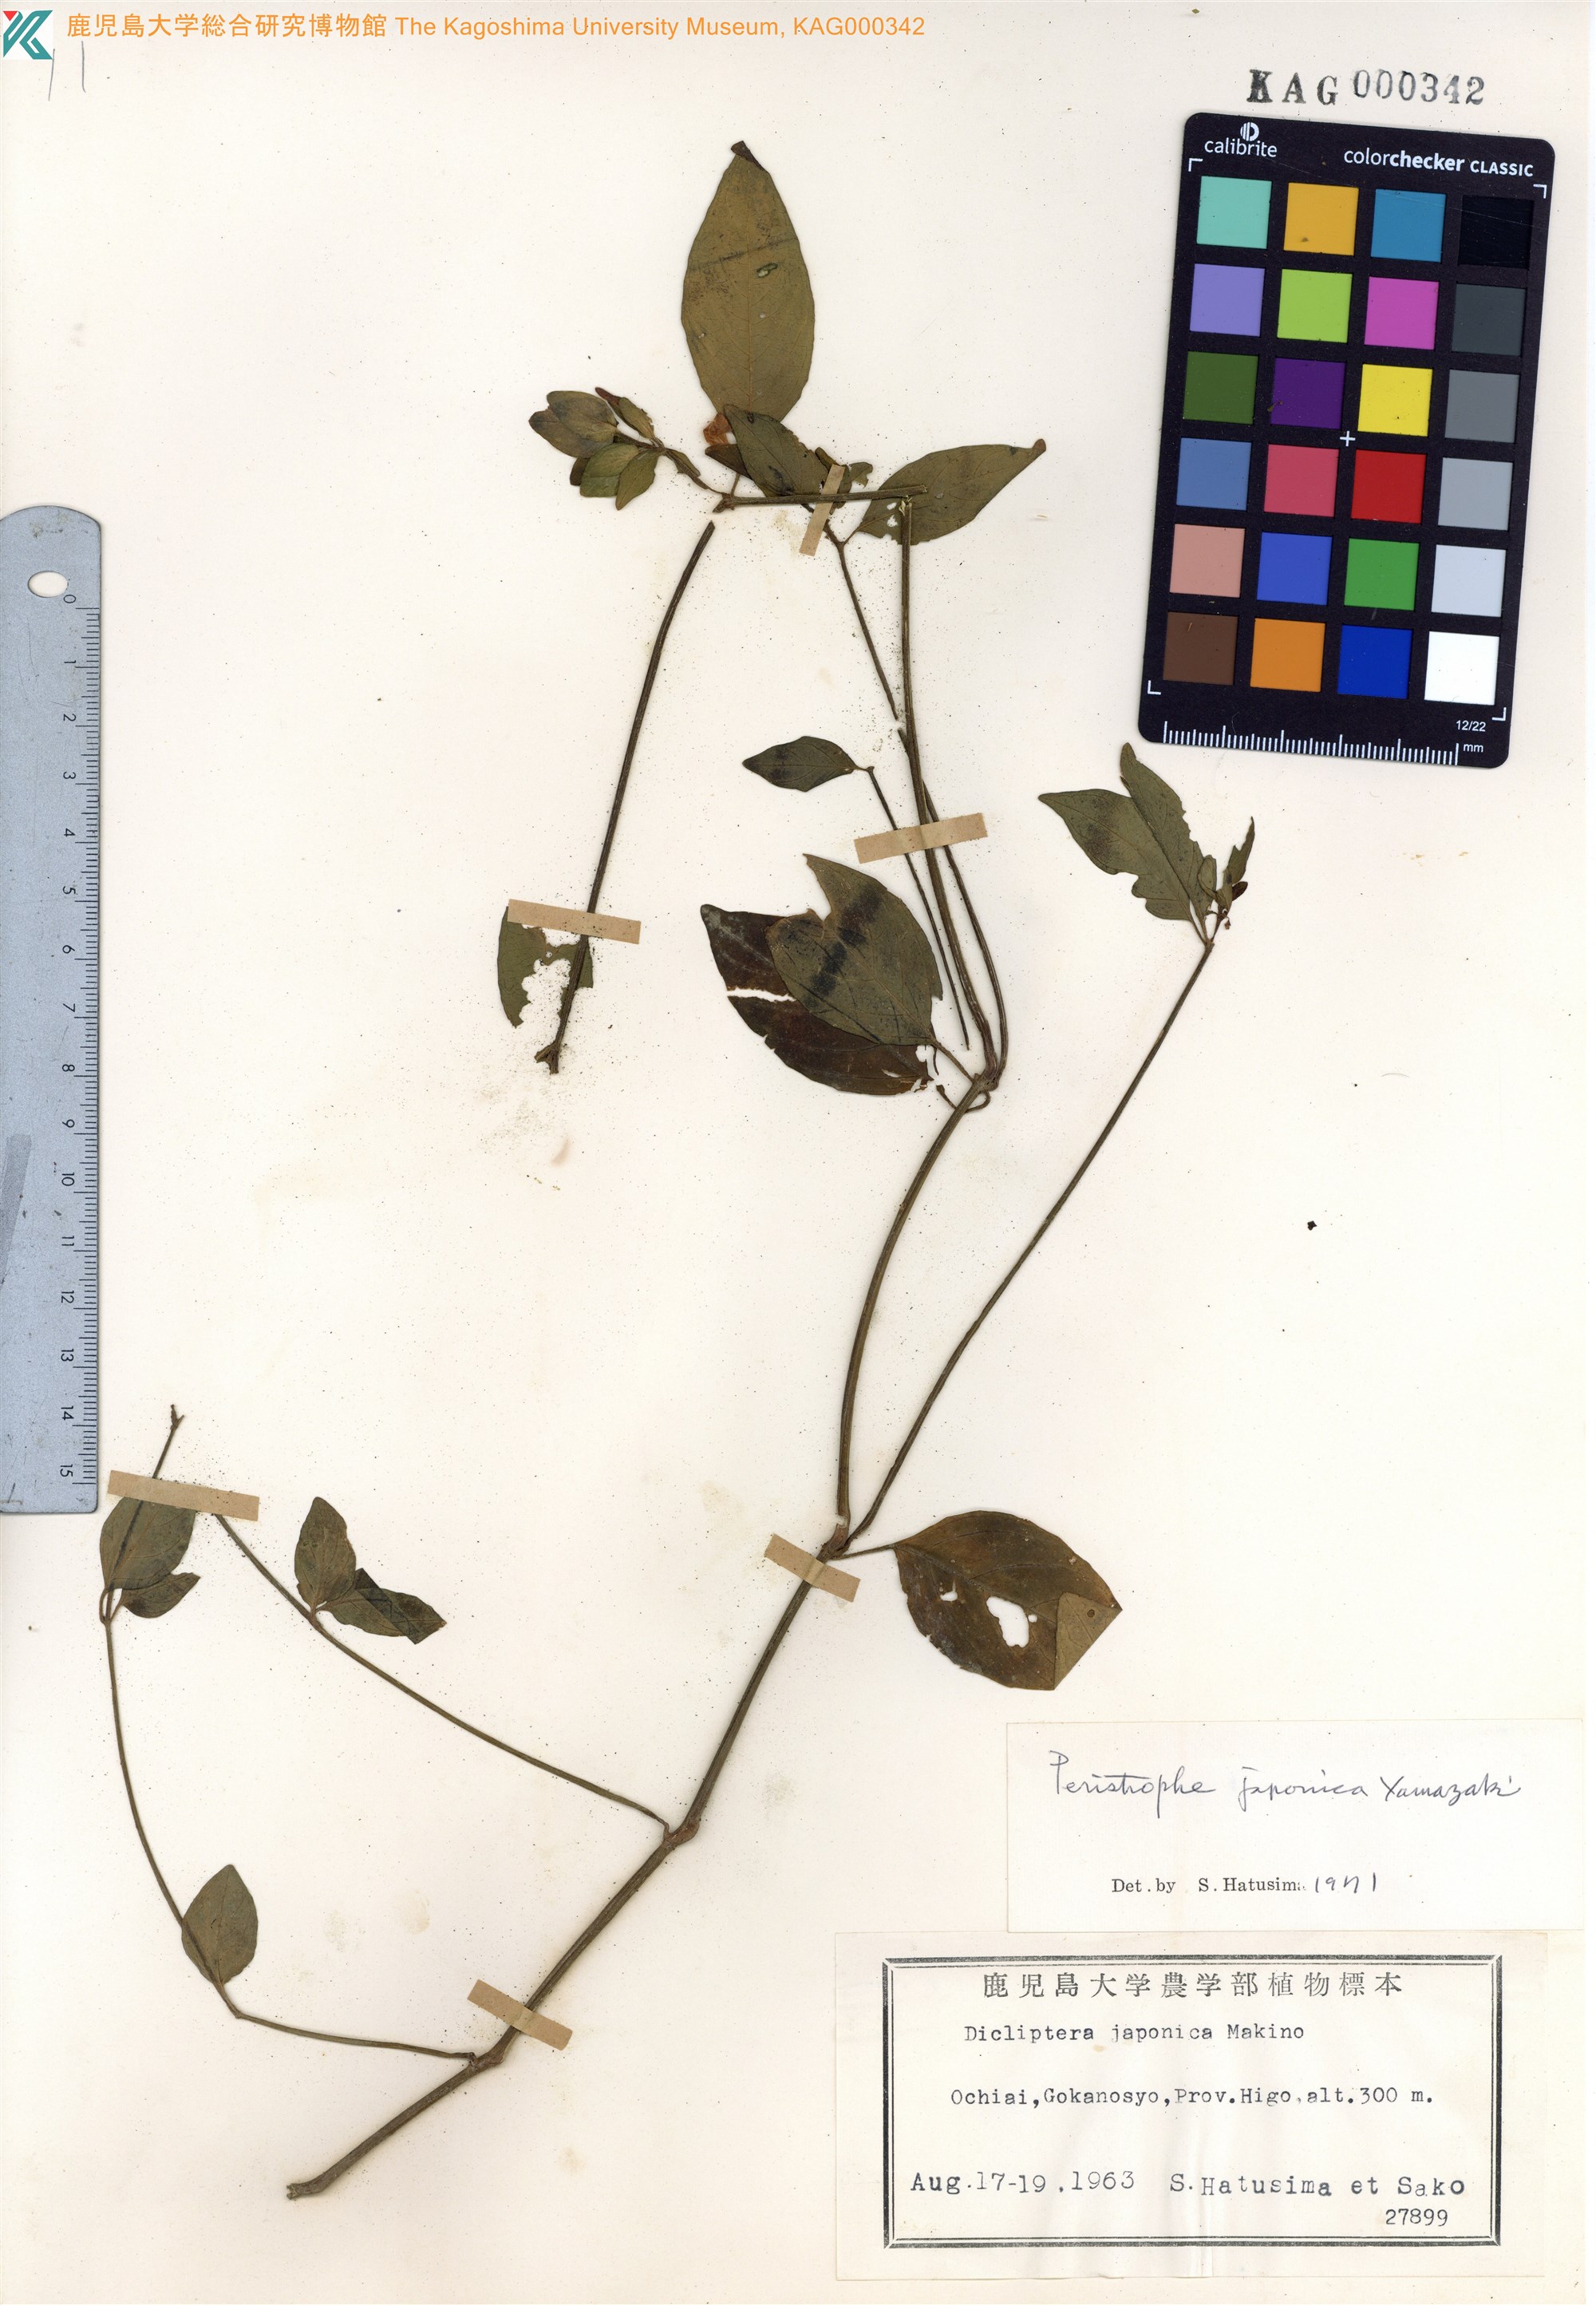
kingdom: Plantae
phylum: Tracheophyta
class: Magnoliopsida
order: Lamiales
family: Acanthaceae
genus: Dicliptera
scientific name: Dicliptera japonica
